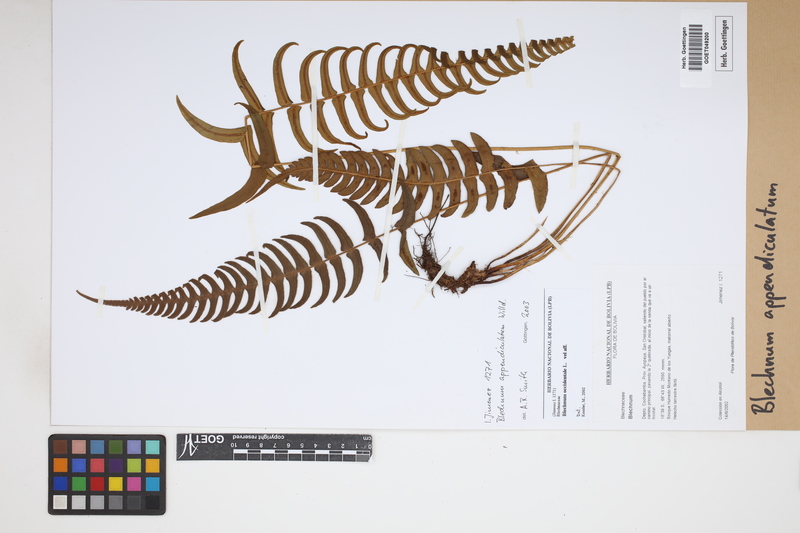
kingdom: Plantae
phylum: Tracheophyta
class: Polypodiopsida
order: Polypodiales
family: Blechnaceae
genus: Blechnum
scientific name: Blechnum appendiculatum
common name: Palm fern
